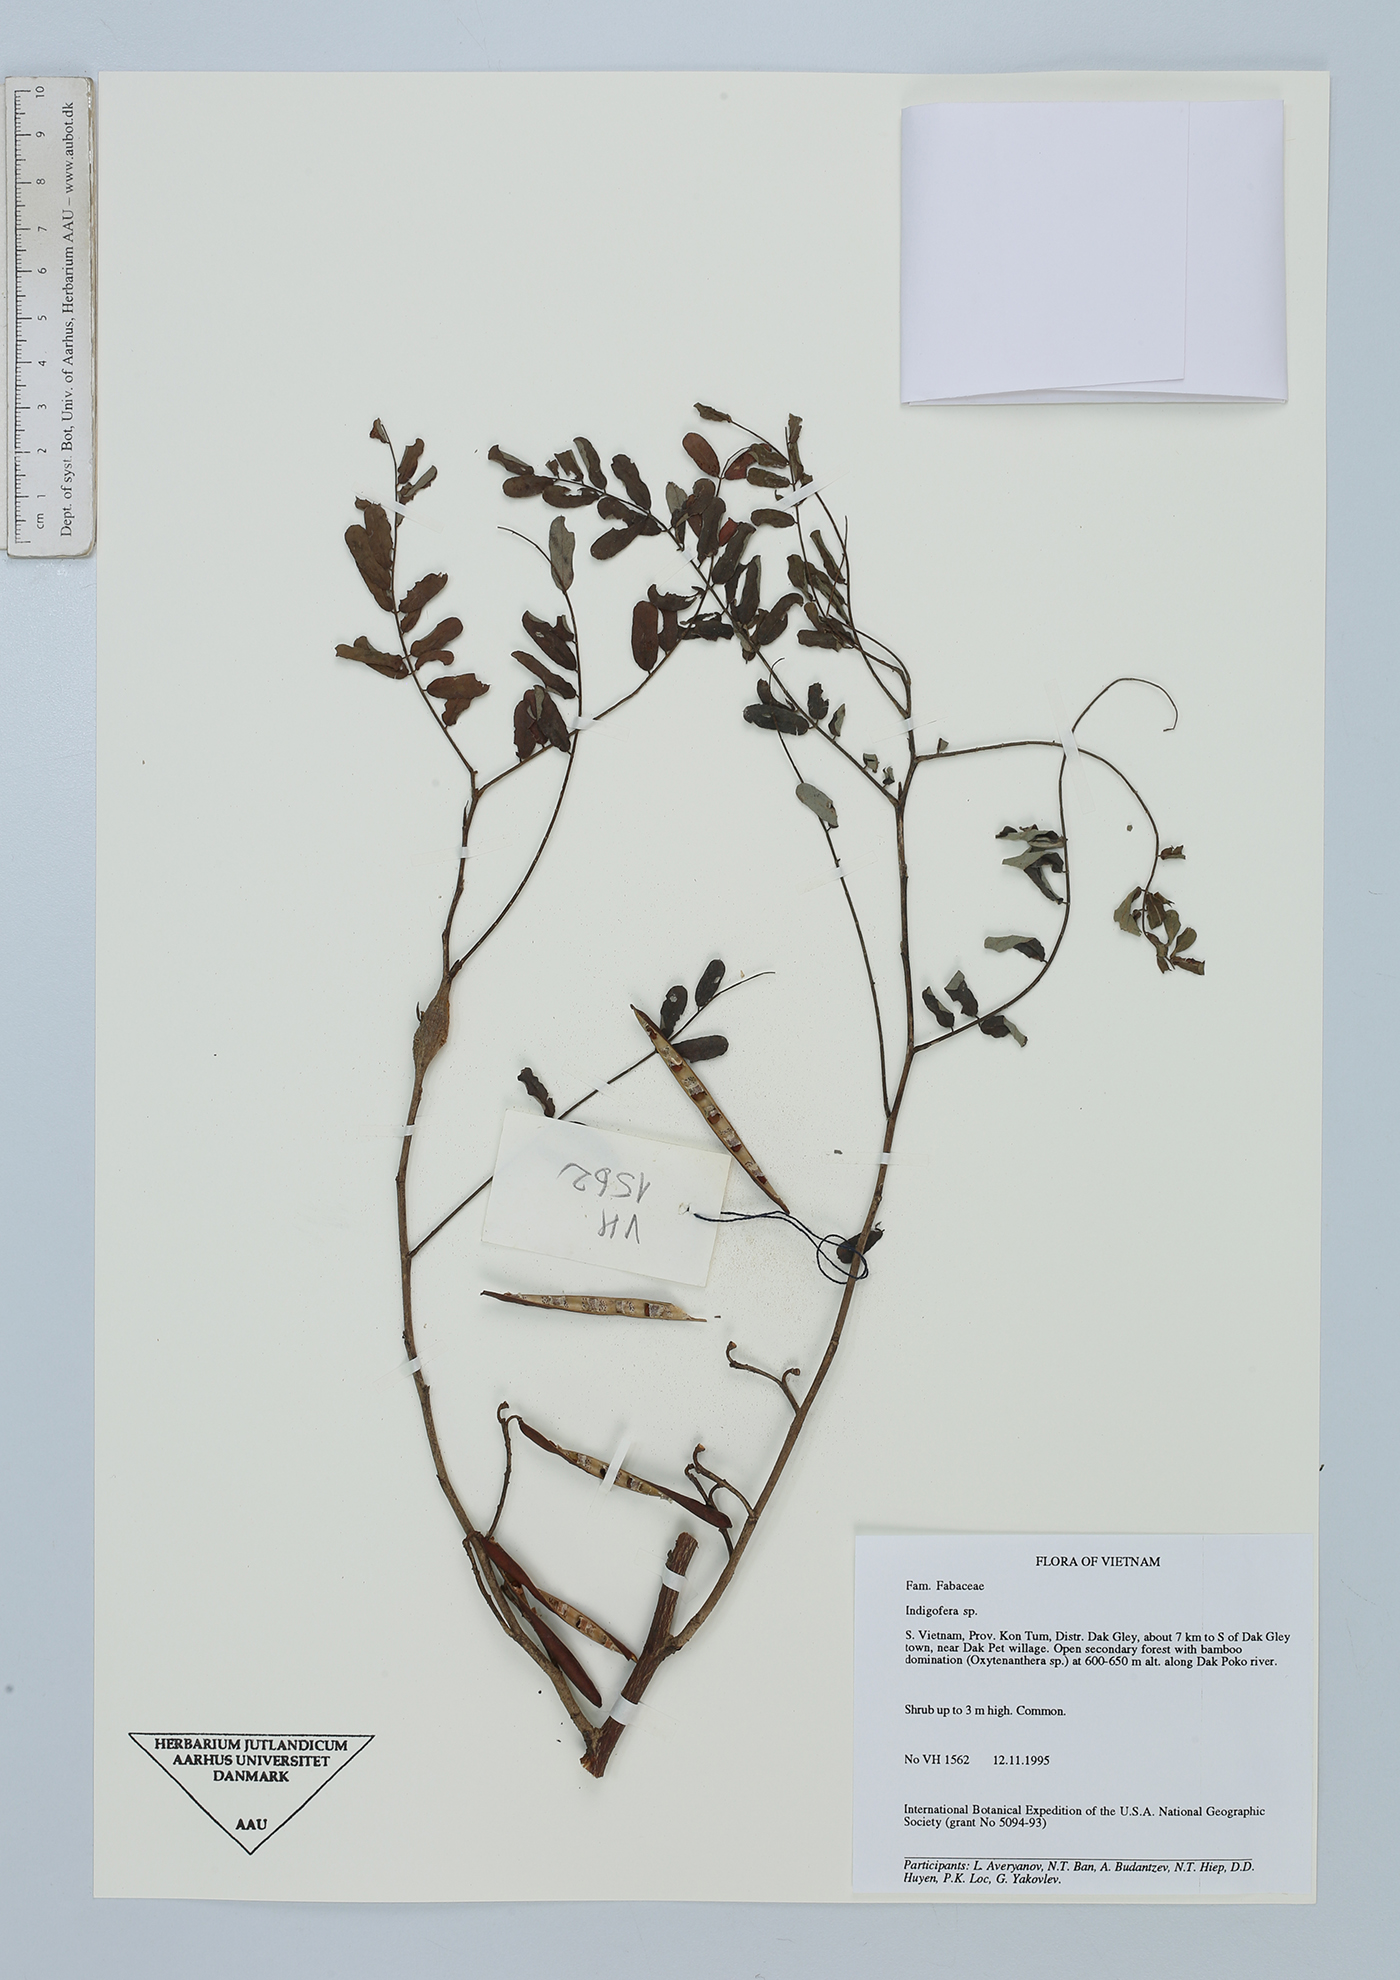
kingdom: Plantae
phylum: Tracheophyta
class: Magnoliopsida
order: Fabales
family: Fabaceae
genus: Indigofera
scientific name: Indigofera
